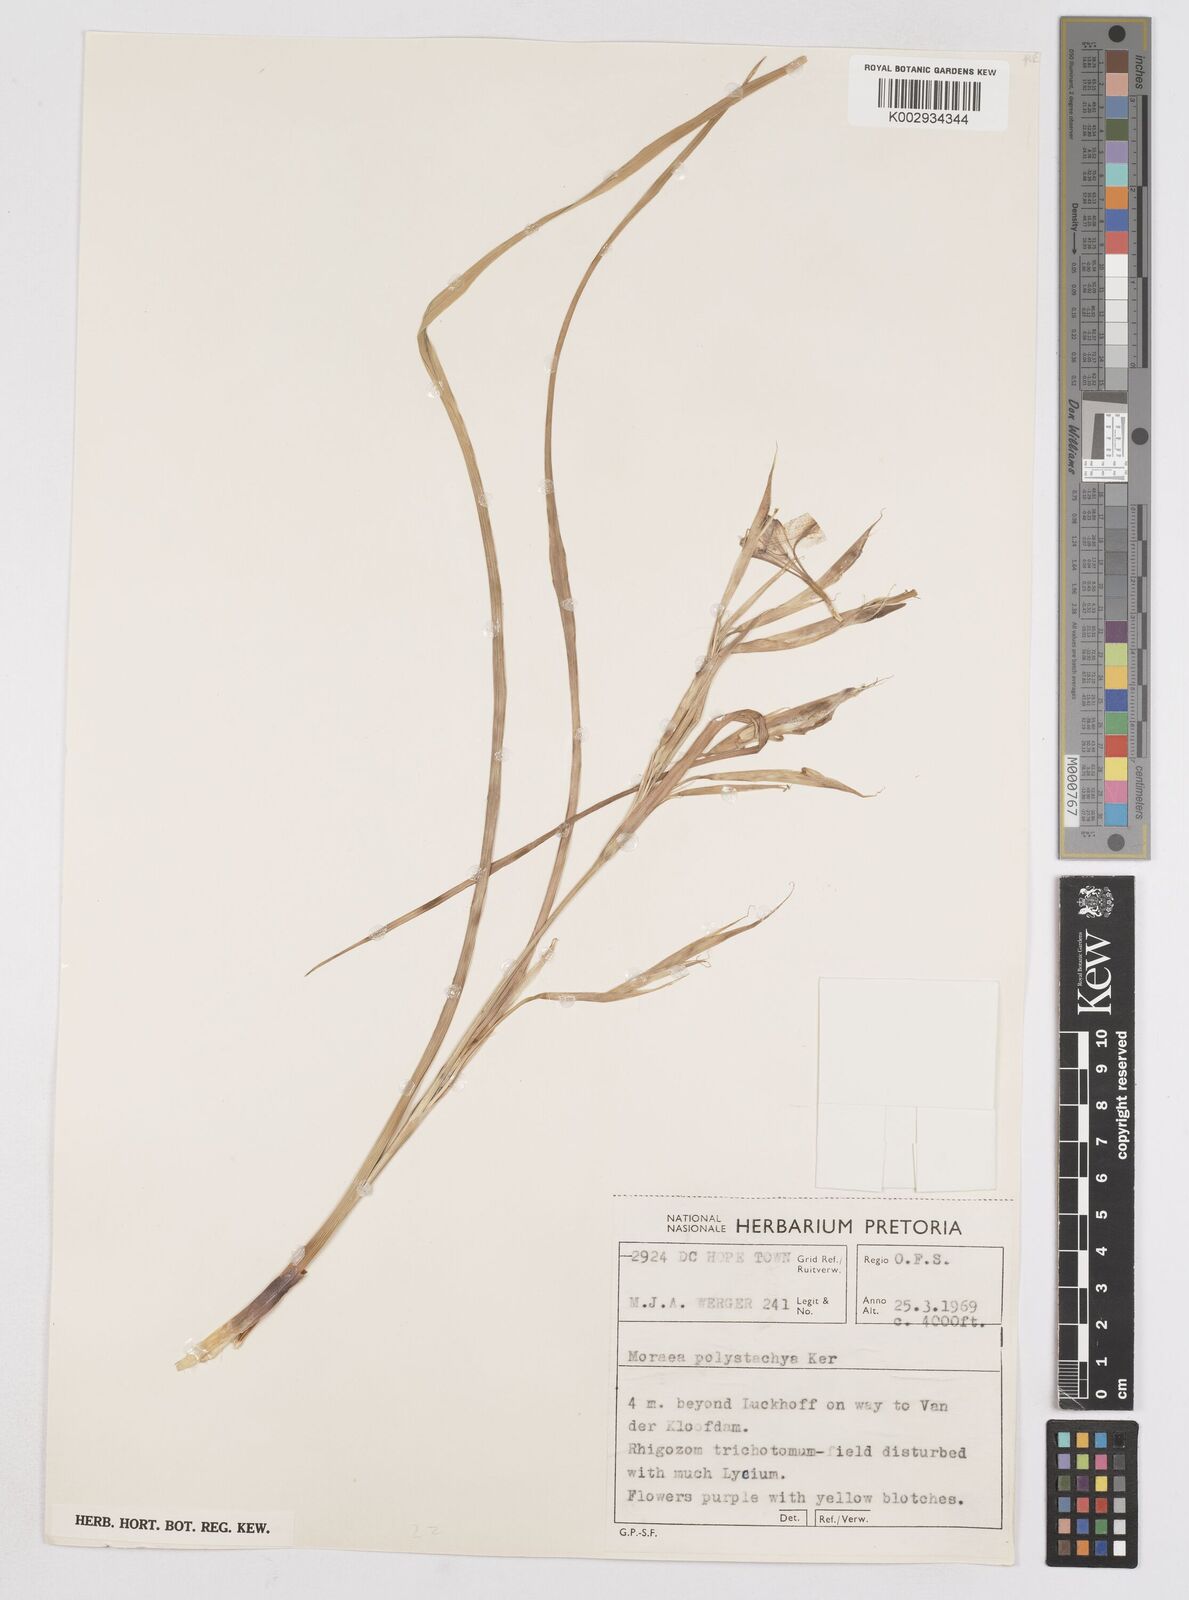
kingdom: Plantae
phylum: Tracheophyta
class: Liliopsida
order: Asparagales
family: Iridaceae
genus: Moraea
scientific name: Moraea polystachya
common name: Blue-tulip
